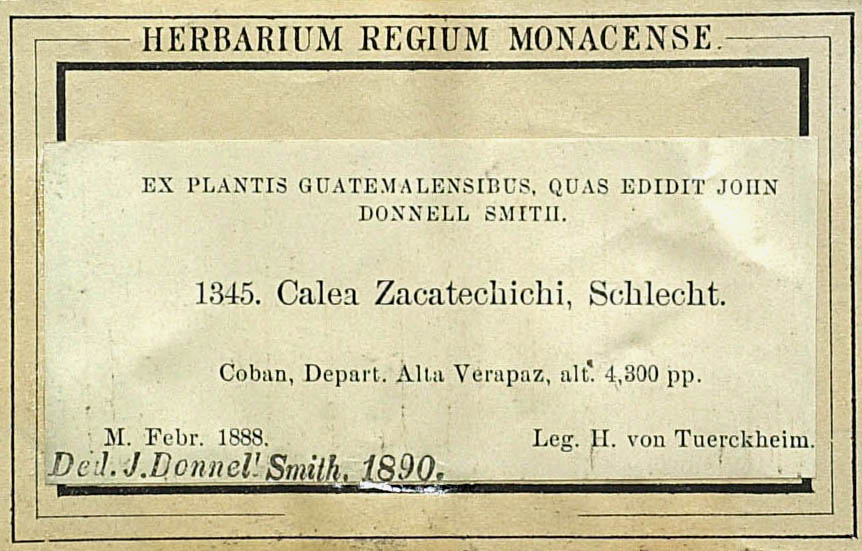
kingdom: Plantae
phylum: Tracheophyta
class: Magnoliopsida
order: Asterales
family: Asteraceae
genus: Calea
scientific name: Calea ternifolia
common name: Mexican calea
